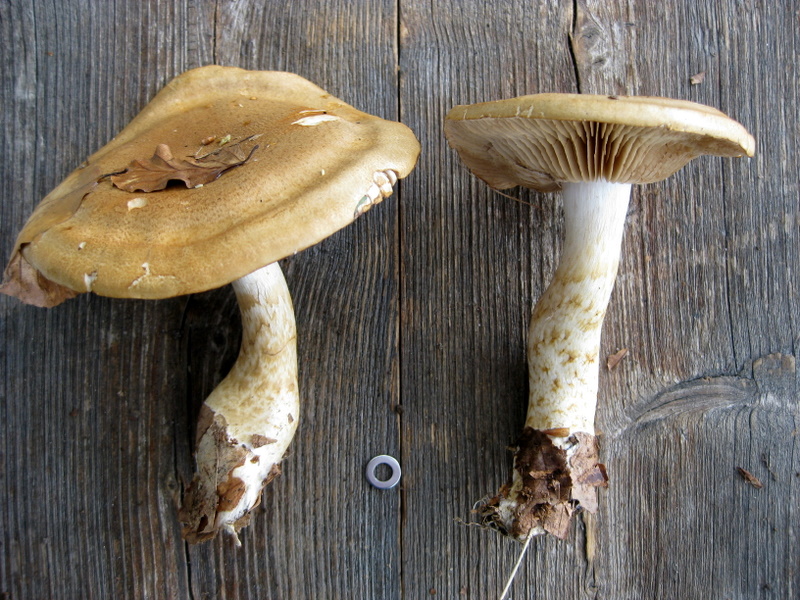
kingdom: Fungi
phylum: Basidiomycota
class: Agaricomycetes
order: Agaricales
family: Cortinariaceae
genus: Phlegmacium
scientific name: Phlegmacium cliduchus
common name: majs-slørhat
